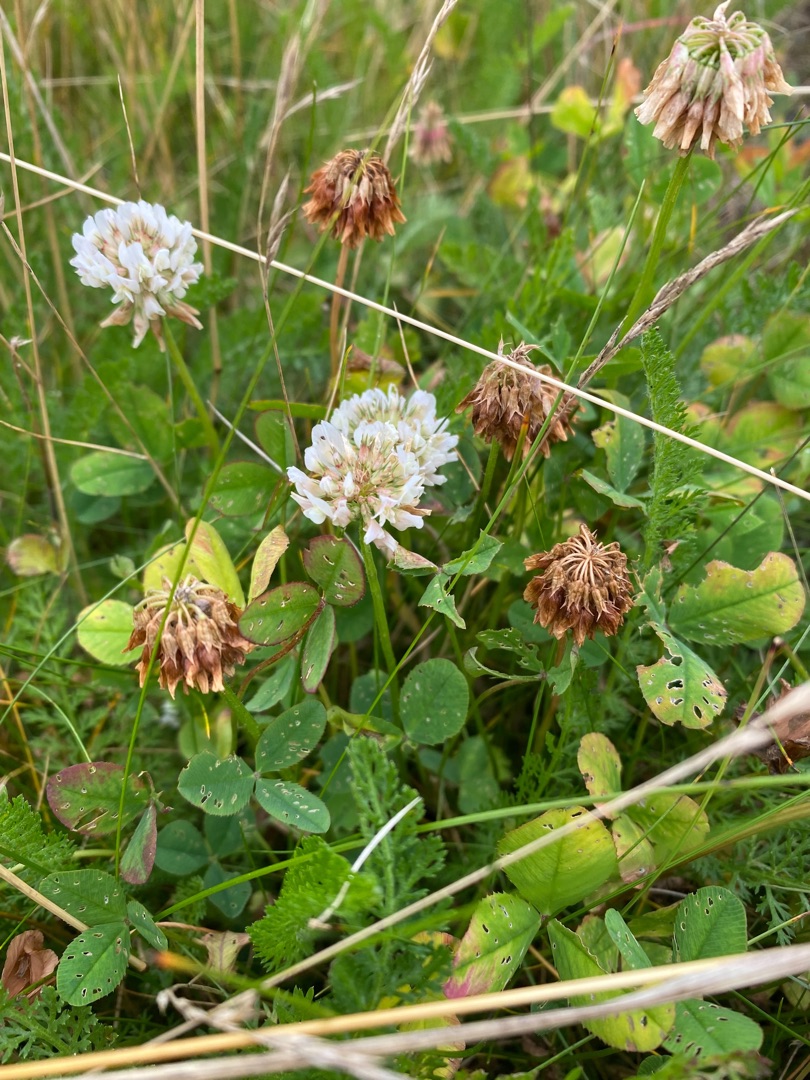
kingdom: Plantae
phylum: Tracheophyta
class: Magnoliopsida
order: Fabales
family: Fabaceae
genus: Trifolium
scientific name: Trifolium repens
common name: Hvid-kløver
